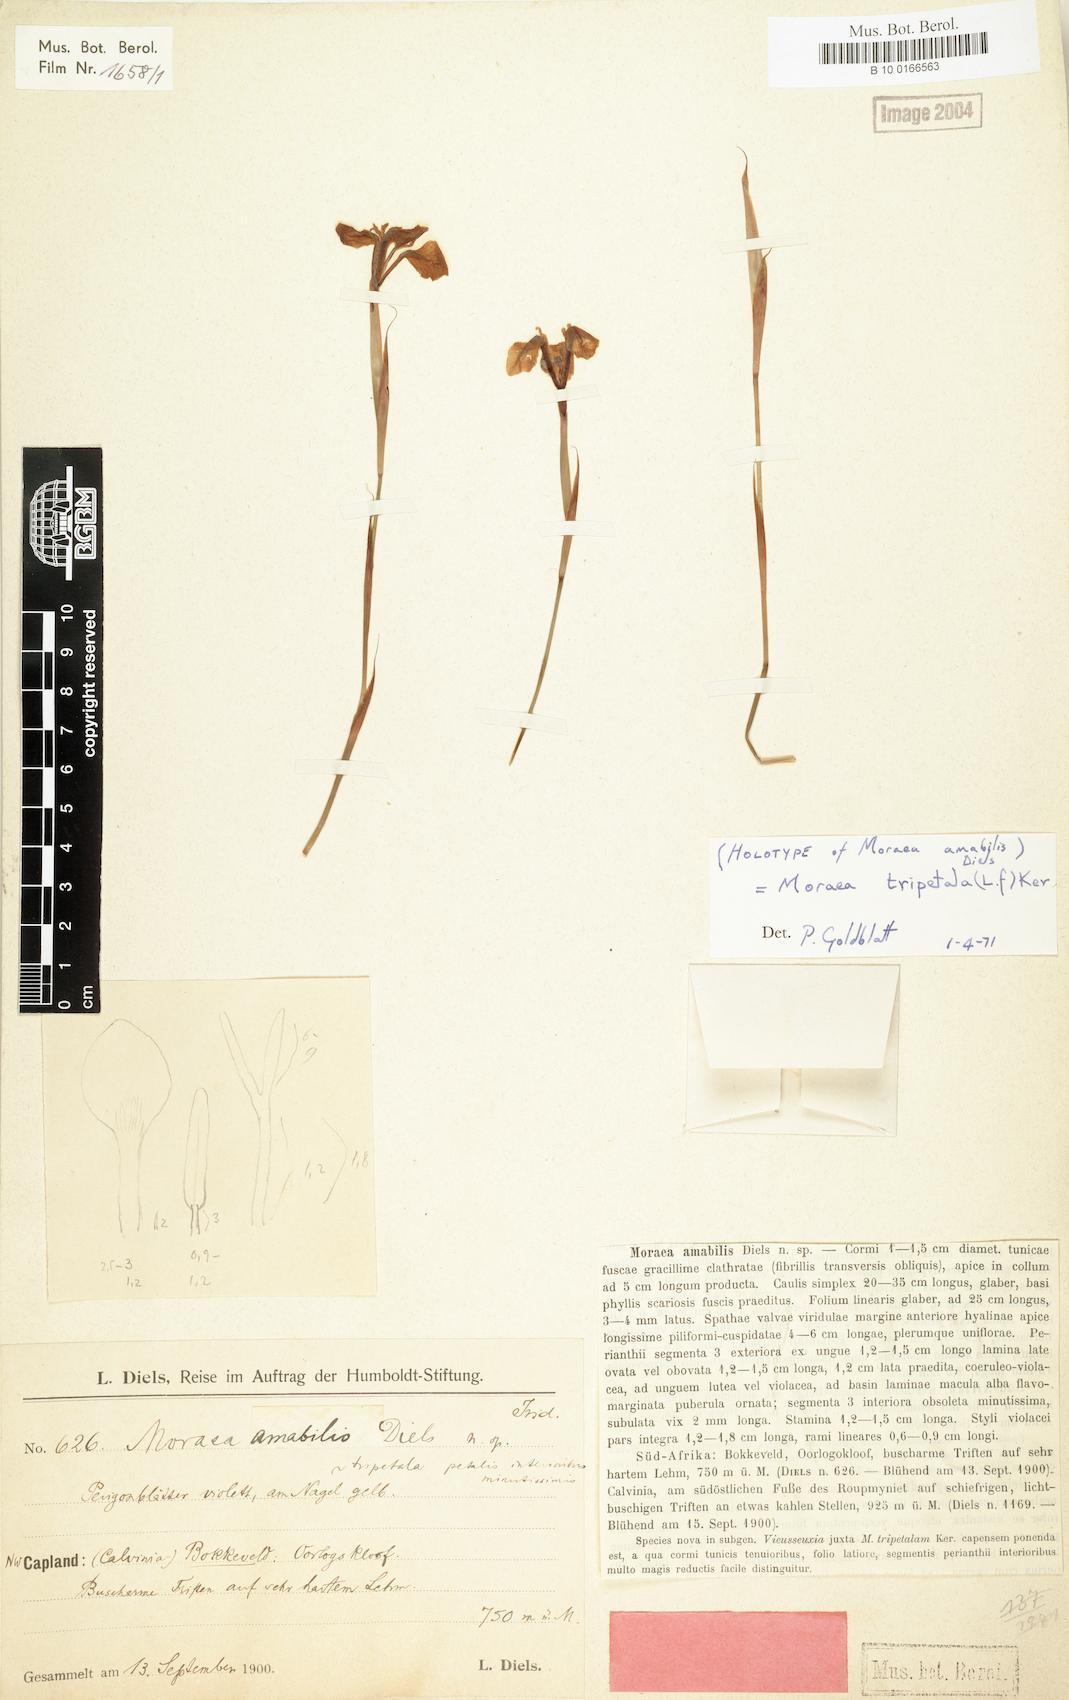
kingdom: Plantae
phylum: Tracheophyta
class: Liliopsida
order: Asparagales
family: Iridaceae
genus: Moraea
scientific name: Moraea tripetala
